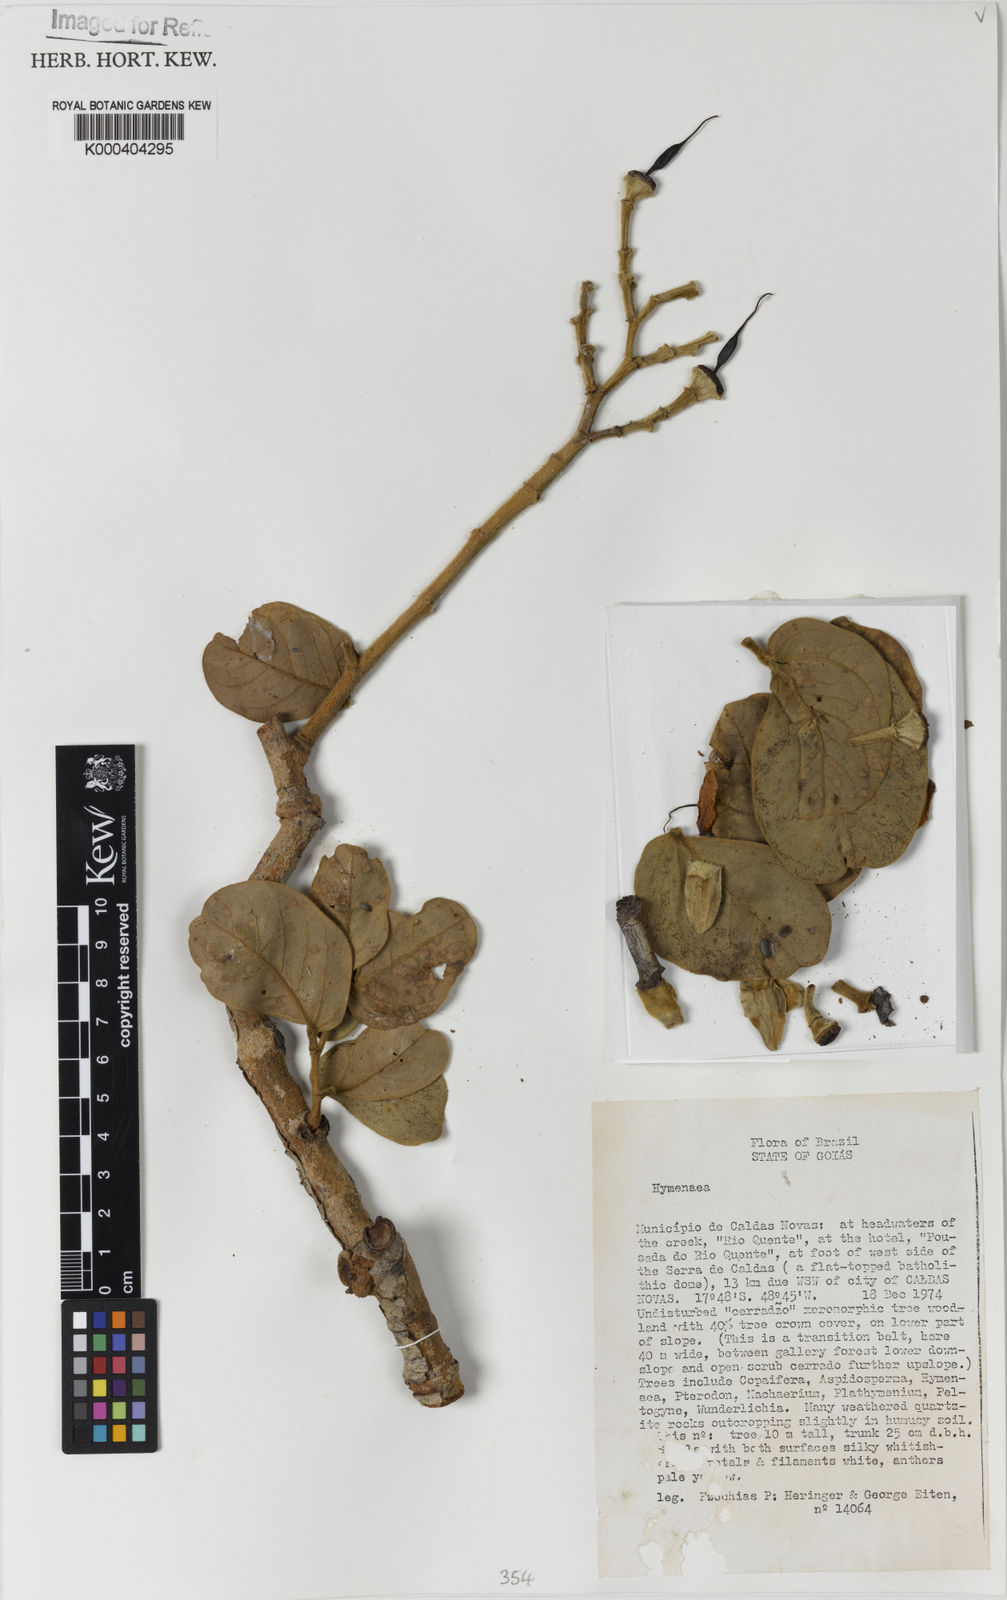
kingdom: Plantae
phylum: Tracheophyta
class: Magnoliopsida
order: Fabales
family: Fabaceae
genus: Hymenaea
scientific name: Hymenaea
